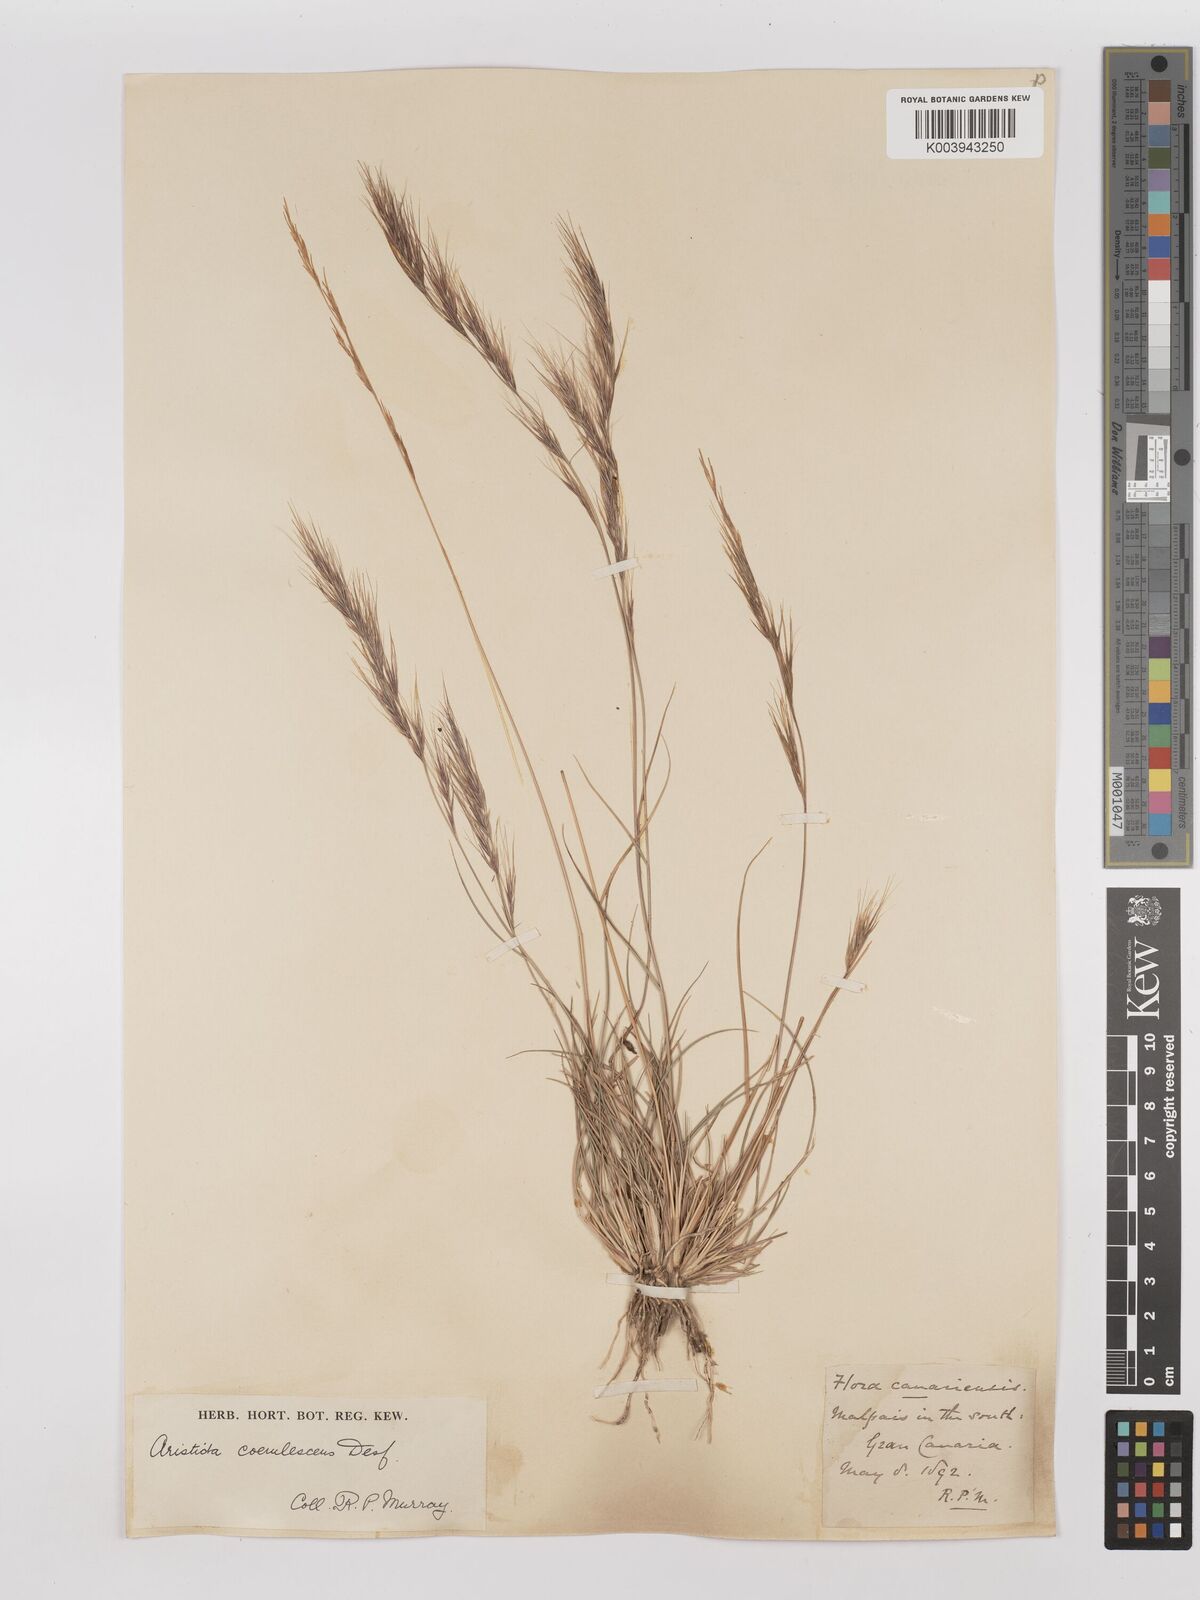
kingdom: Plantae
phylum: Tracheophyta
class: Liliopsida
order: Poales
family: Poaceae
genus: Aristida
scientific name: Aristida adscensionis
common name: Sixweeks threeawn
